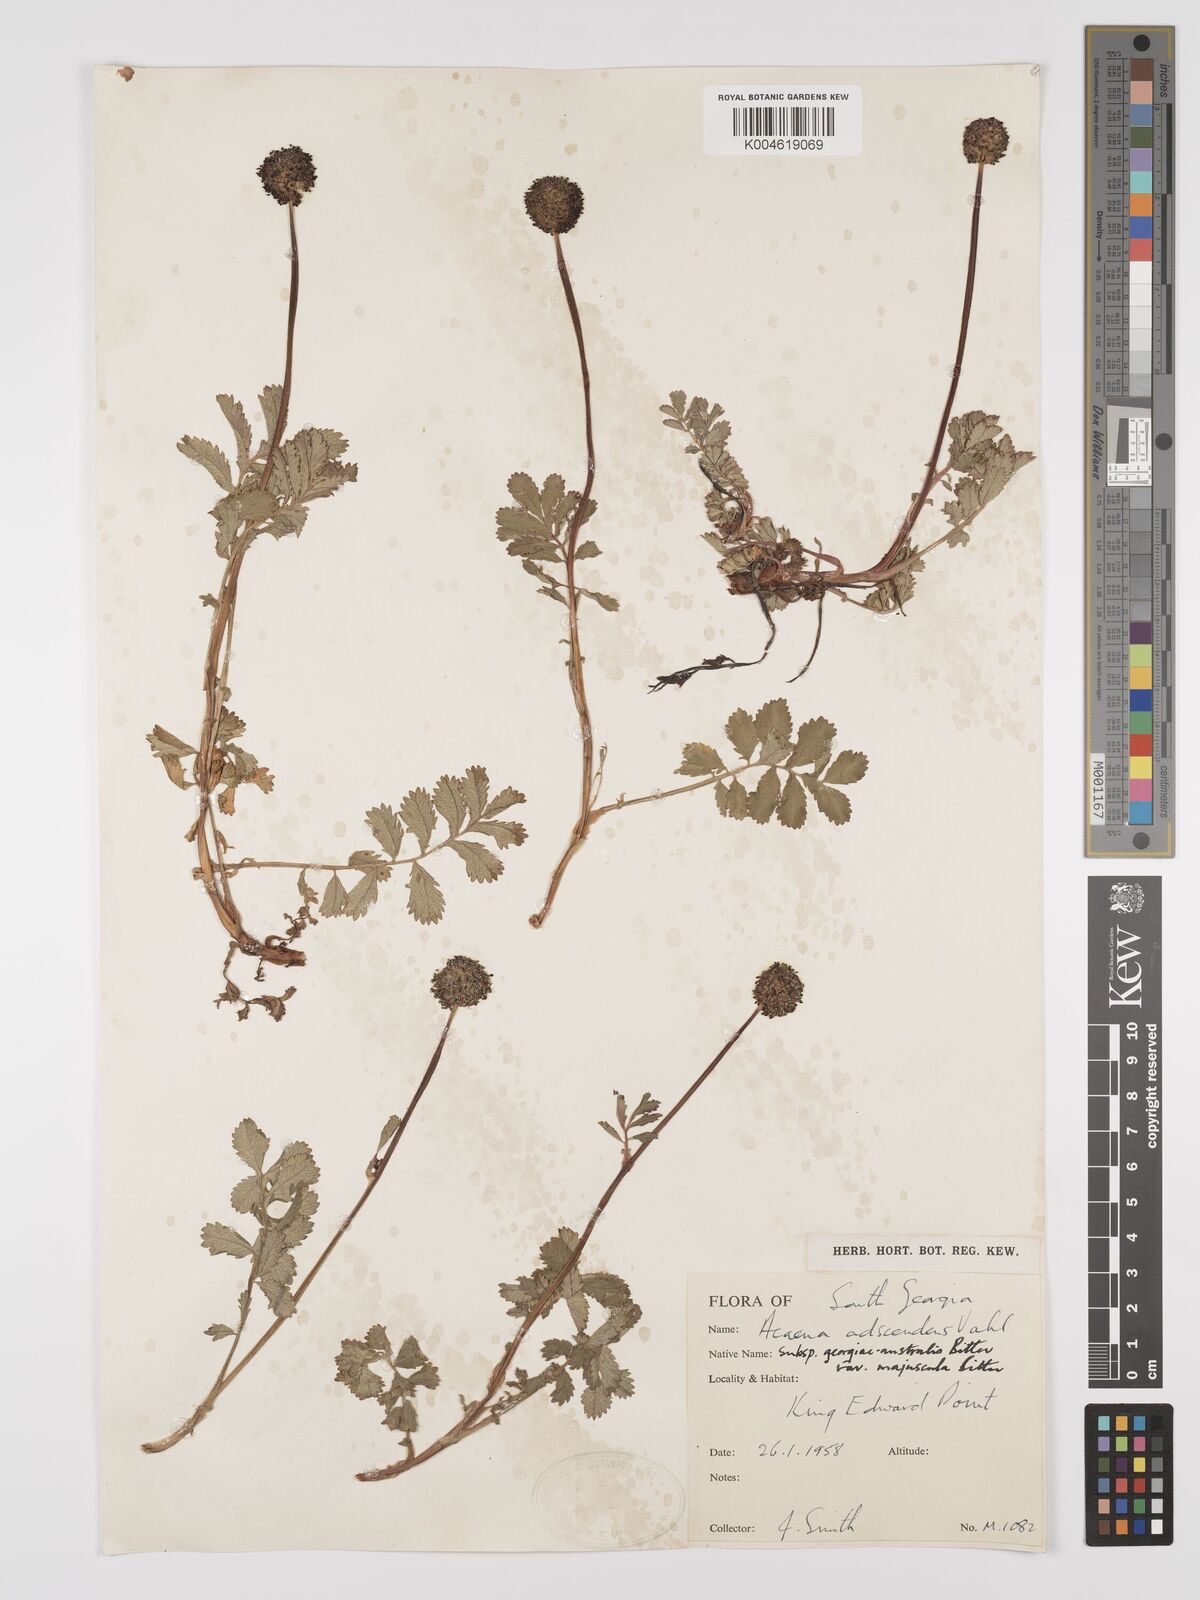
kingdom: Plantae
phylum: Tracheophyta
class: Magnoliopsida
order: Rosales
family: Rosaceae
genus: Acaena
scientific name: Acaena magellanica
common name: New zealand burr
